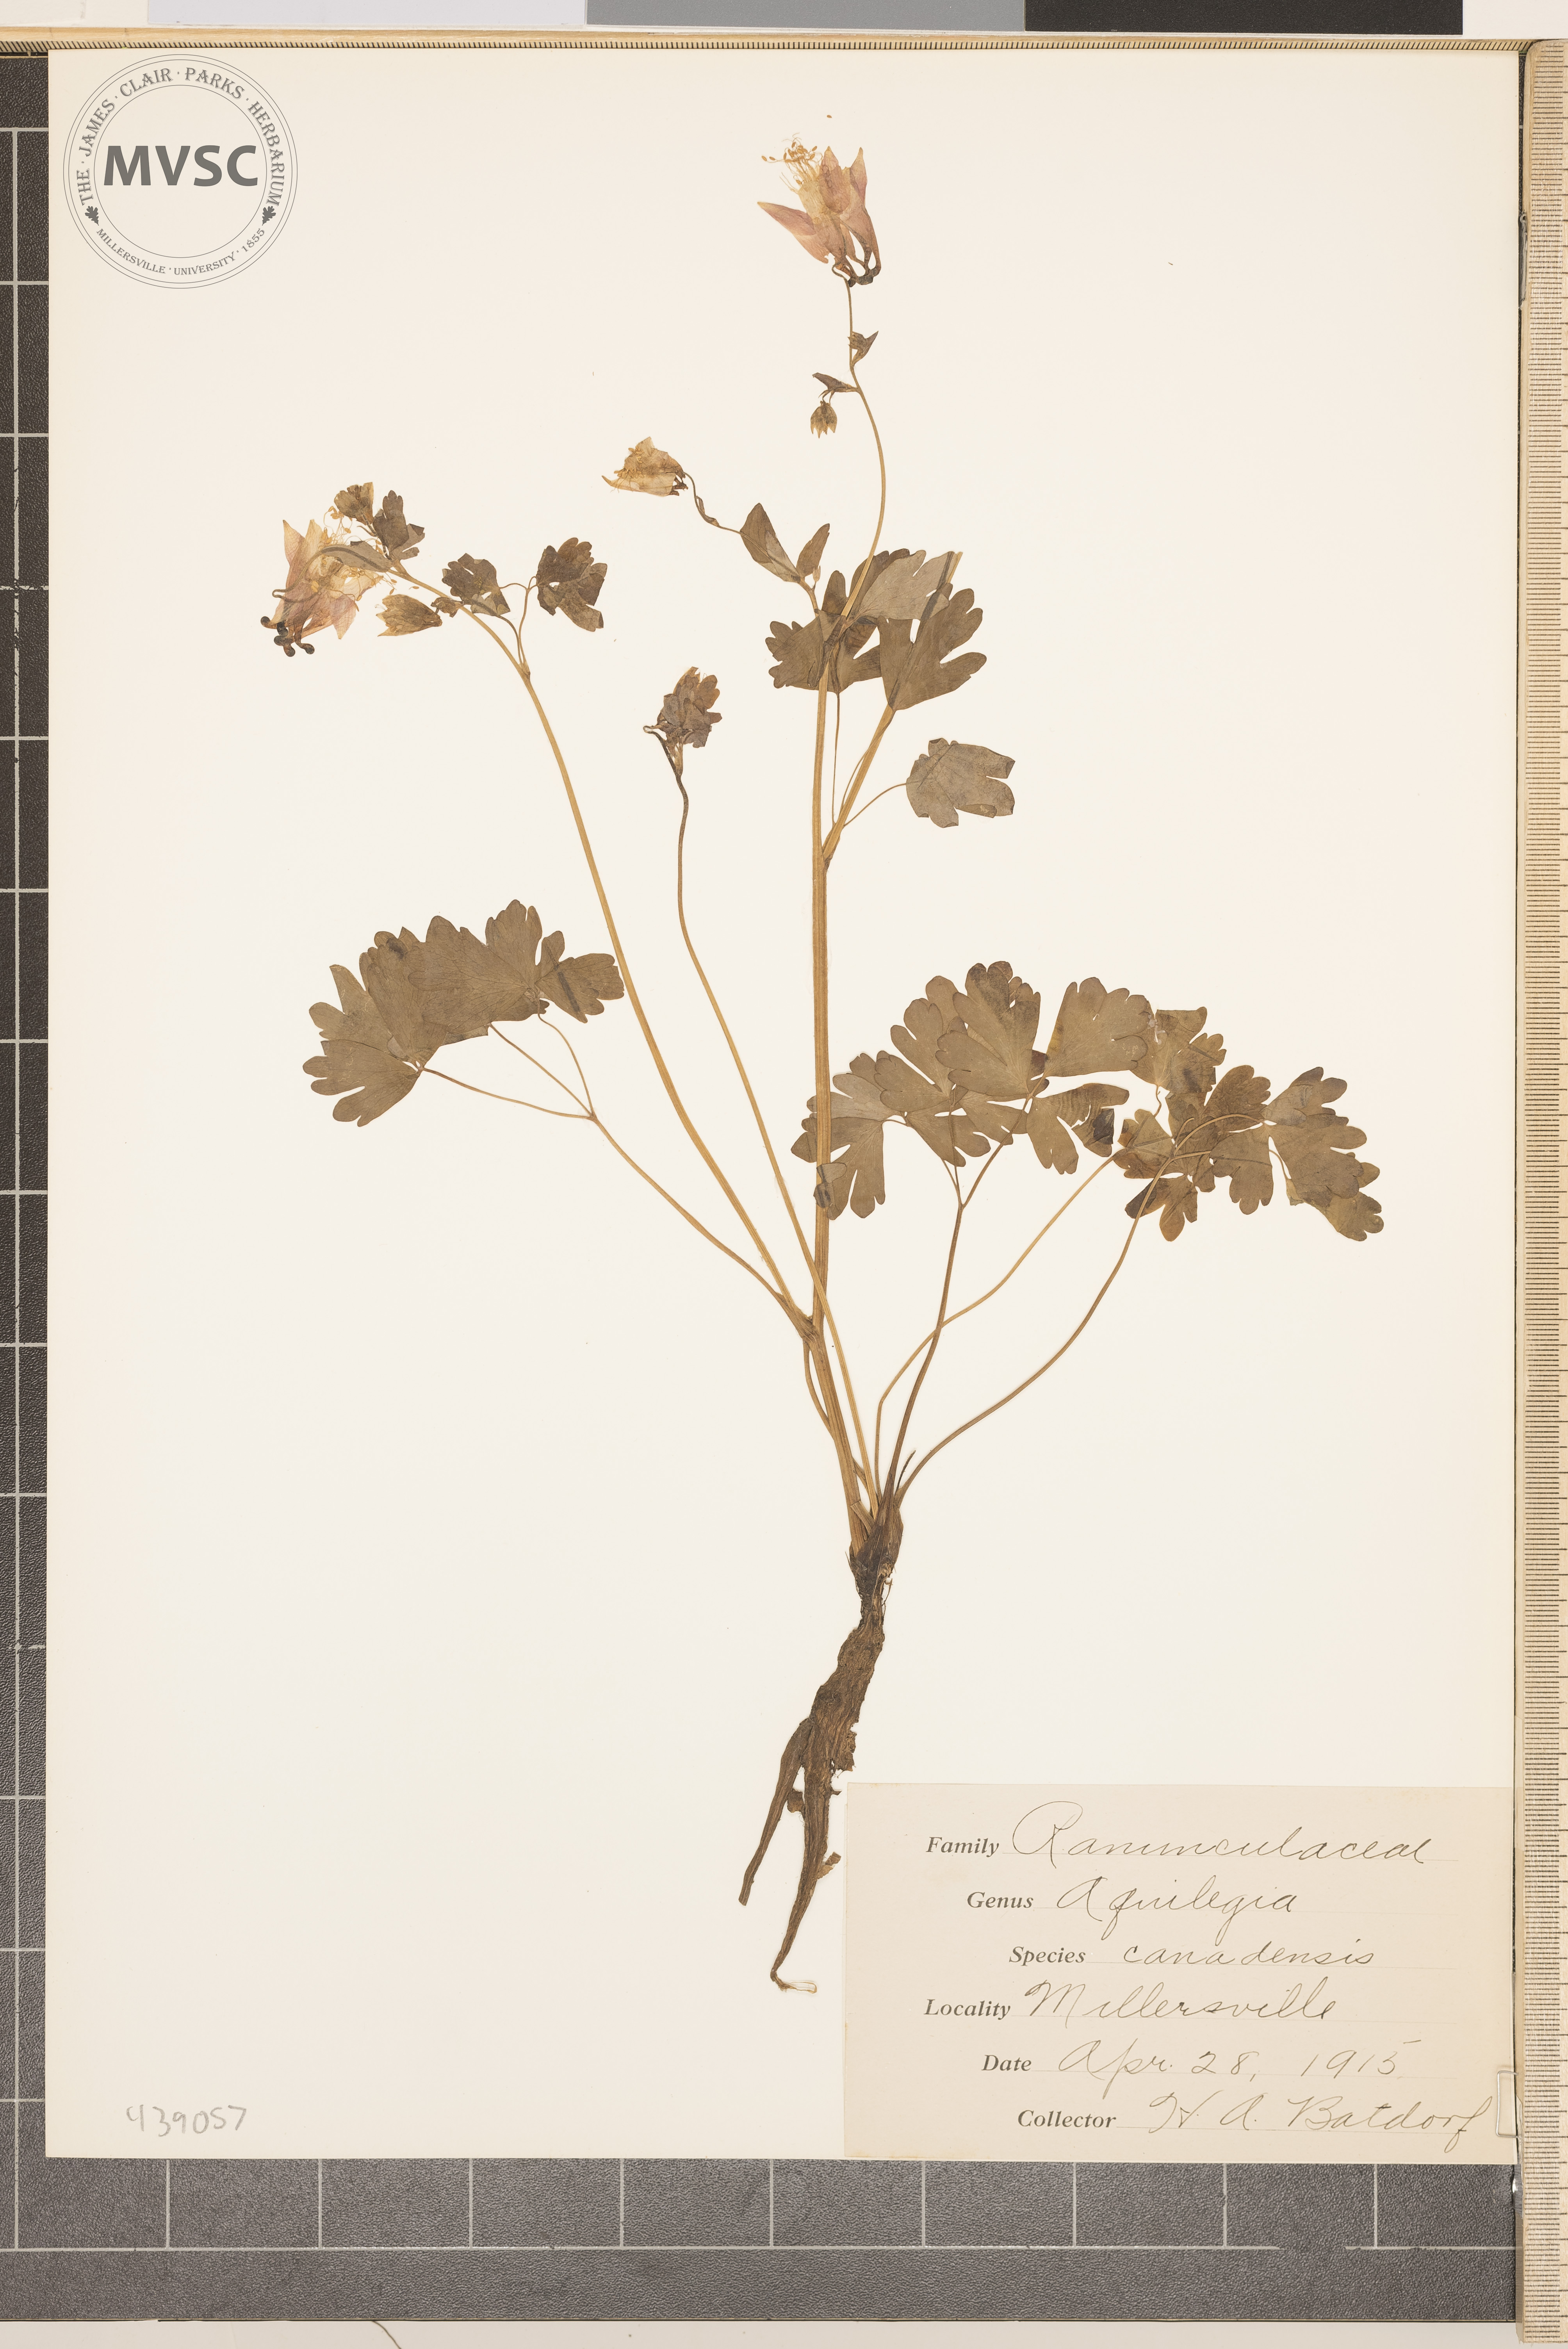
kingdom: Plantae
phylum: Tracheophyta
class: Magnoliopsida
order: Ranunculales
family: Ranunculaceae
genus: Aquilegia
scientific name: Aquilegia canadensis
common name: American columbine
